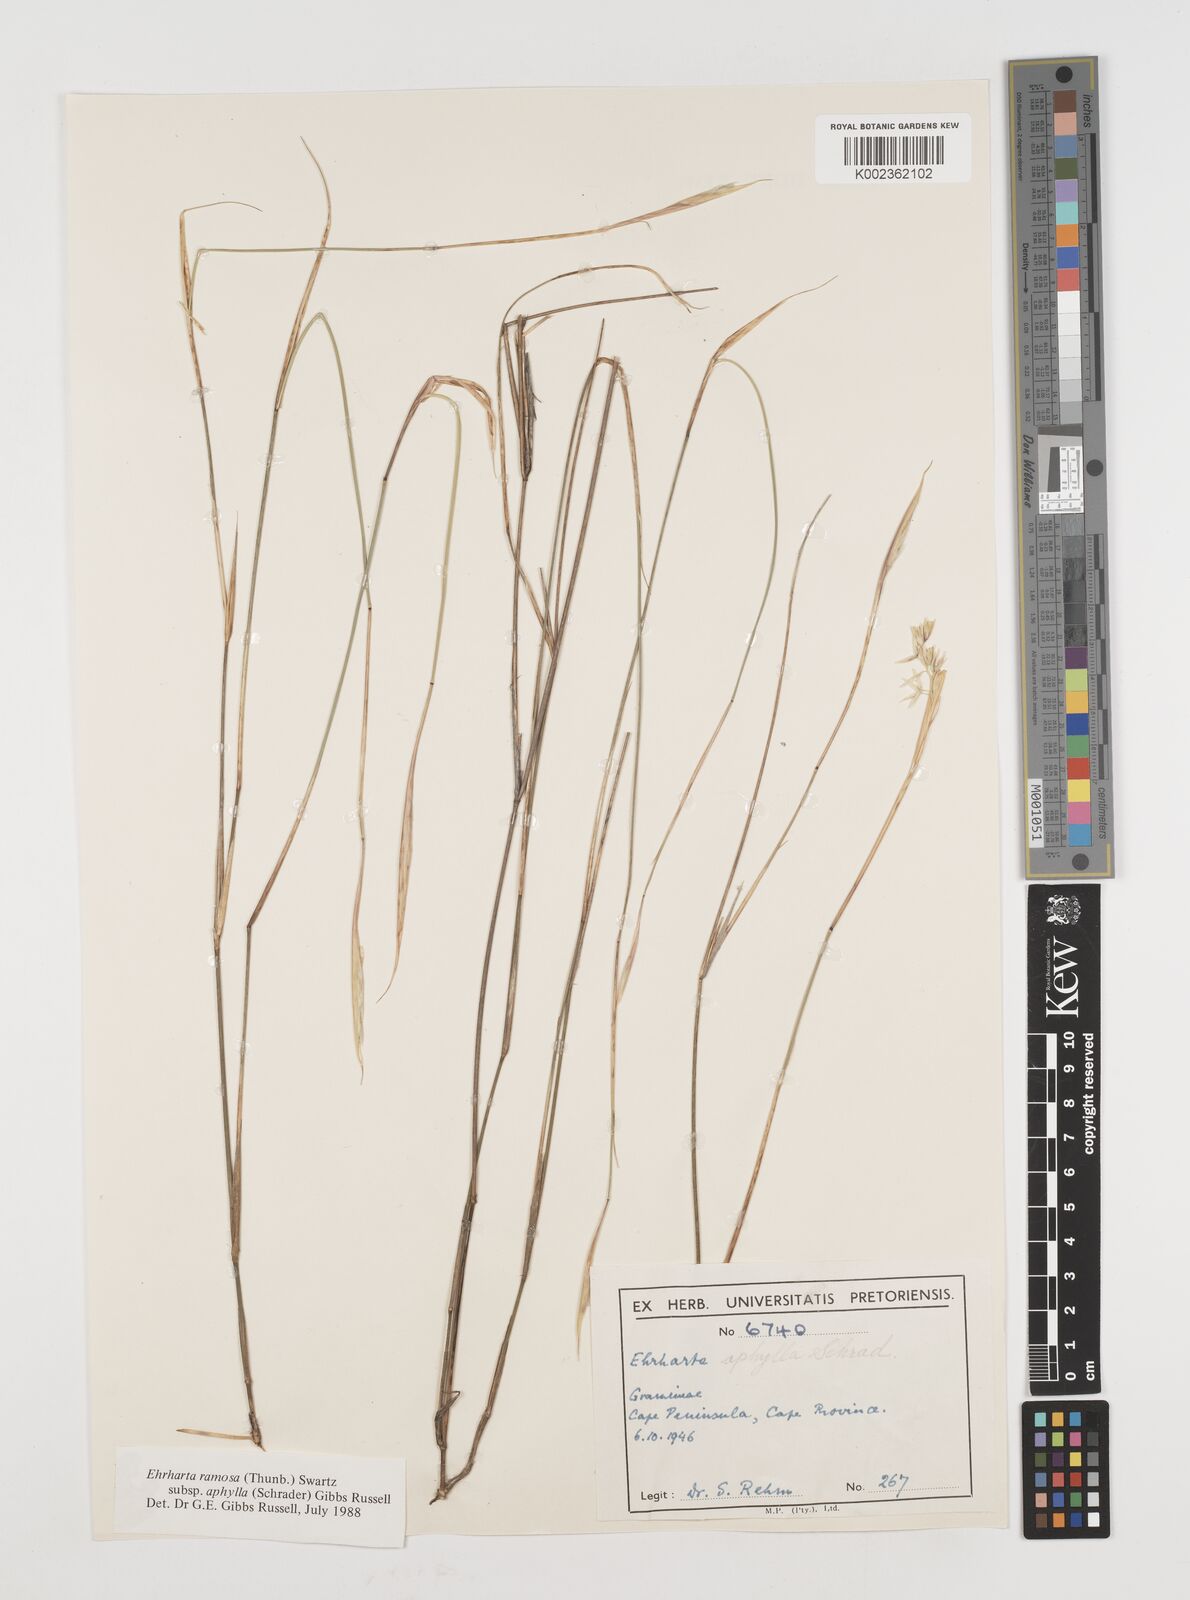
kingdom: Plantae
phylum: Tracheophyta
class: Liliopsida
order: Poales
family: Poaceae
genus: Ehrharta
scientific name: Ehrharta digyna
